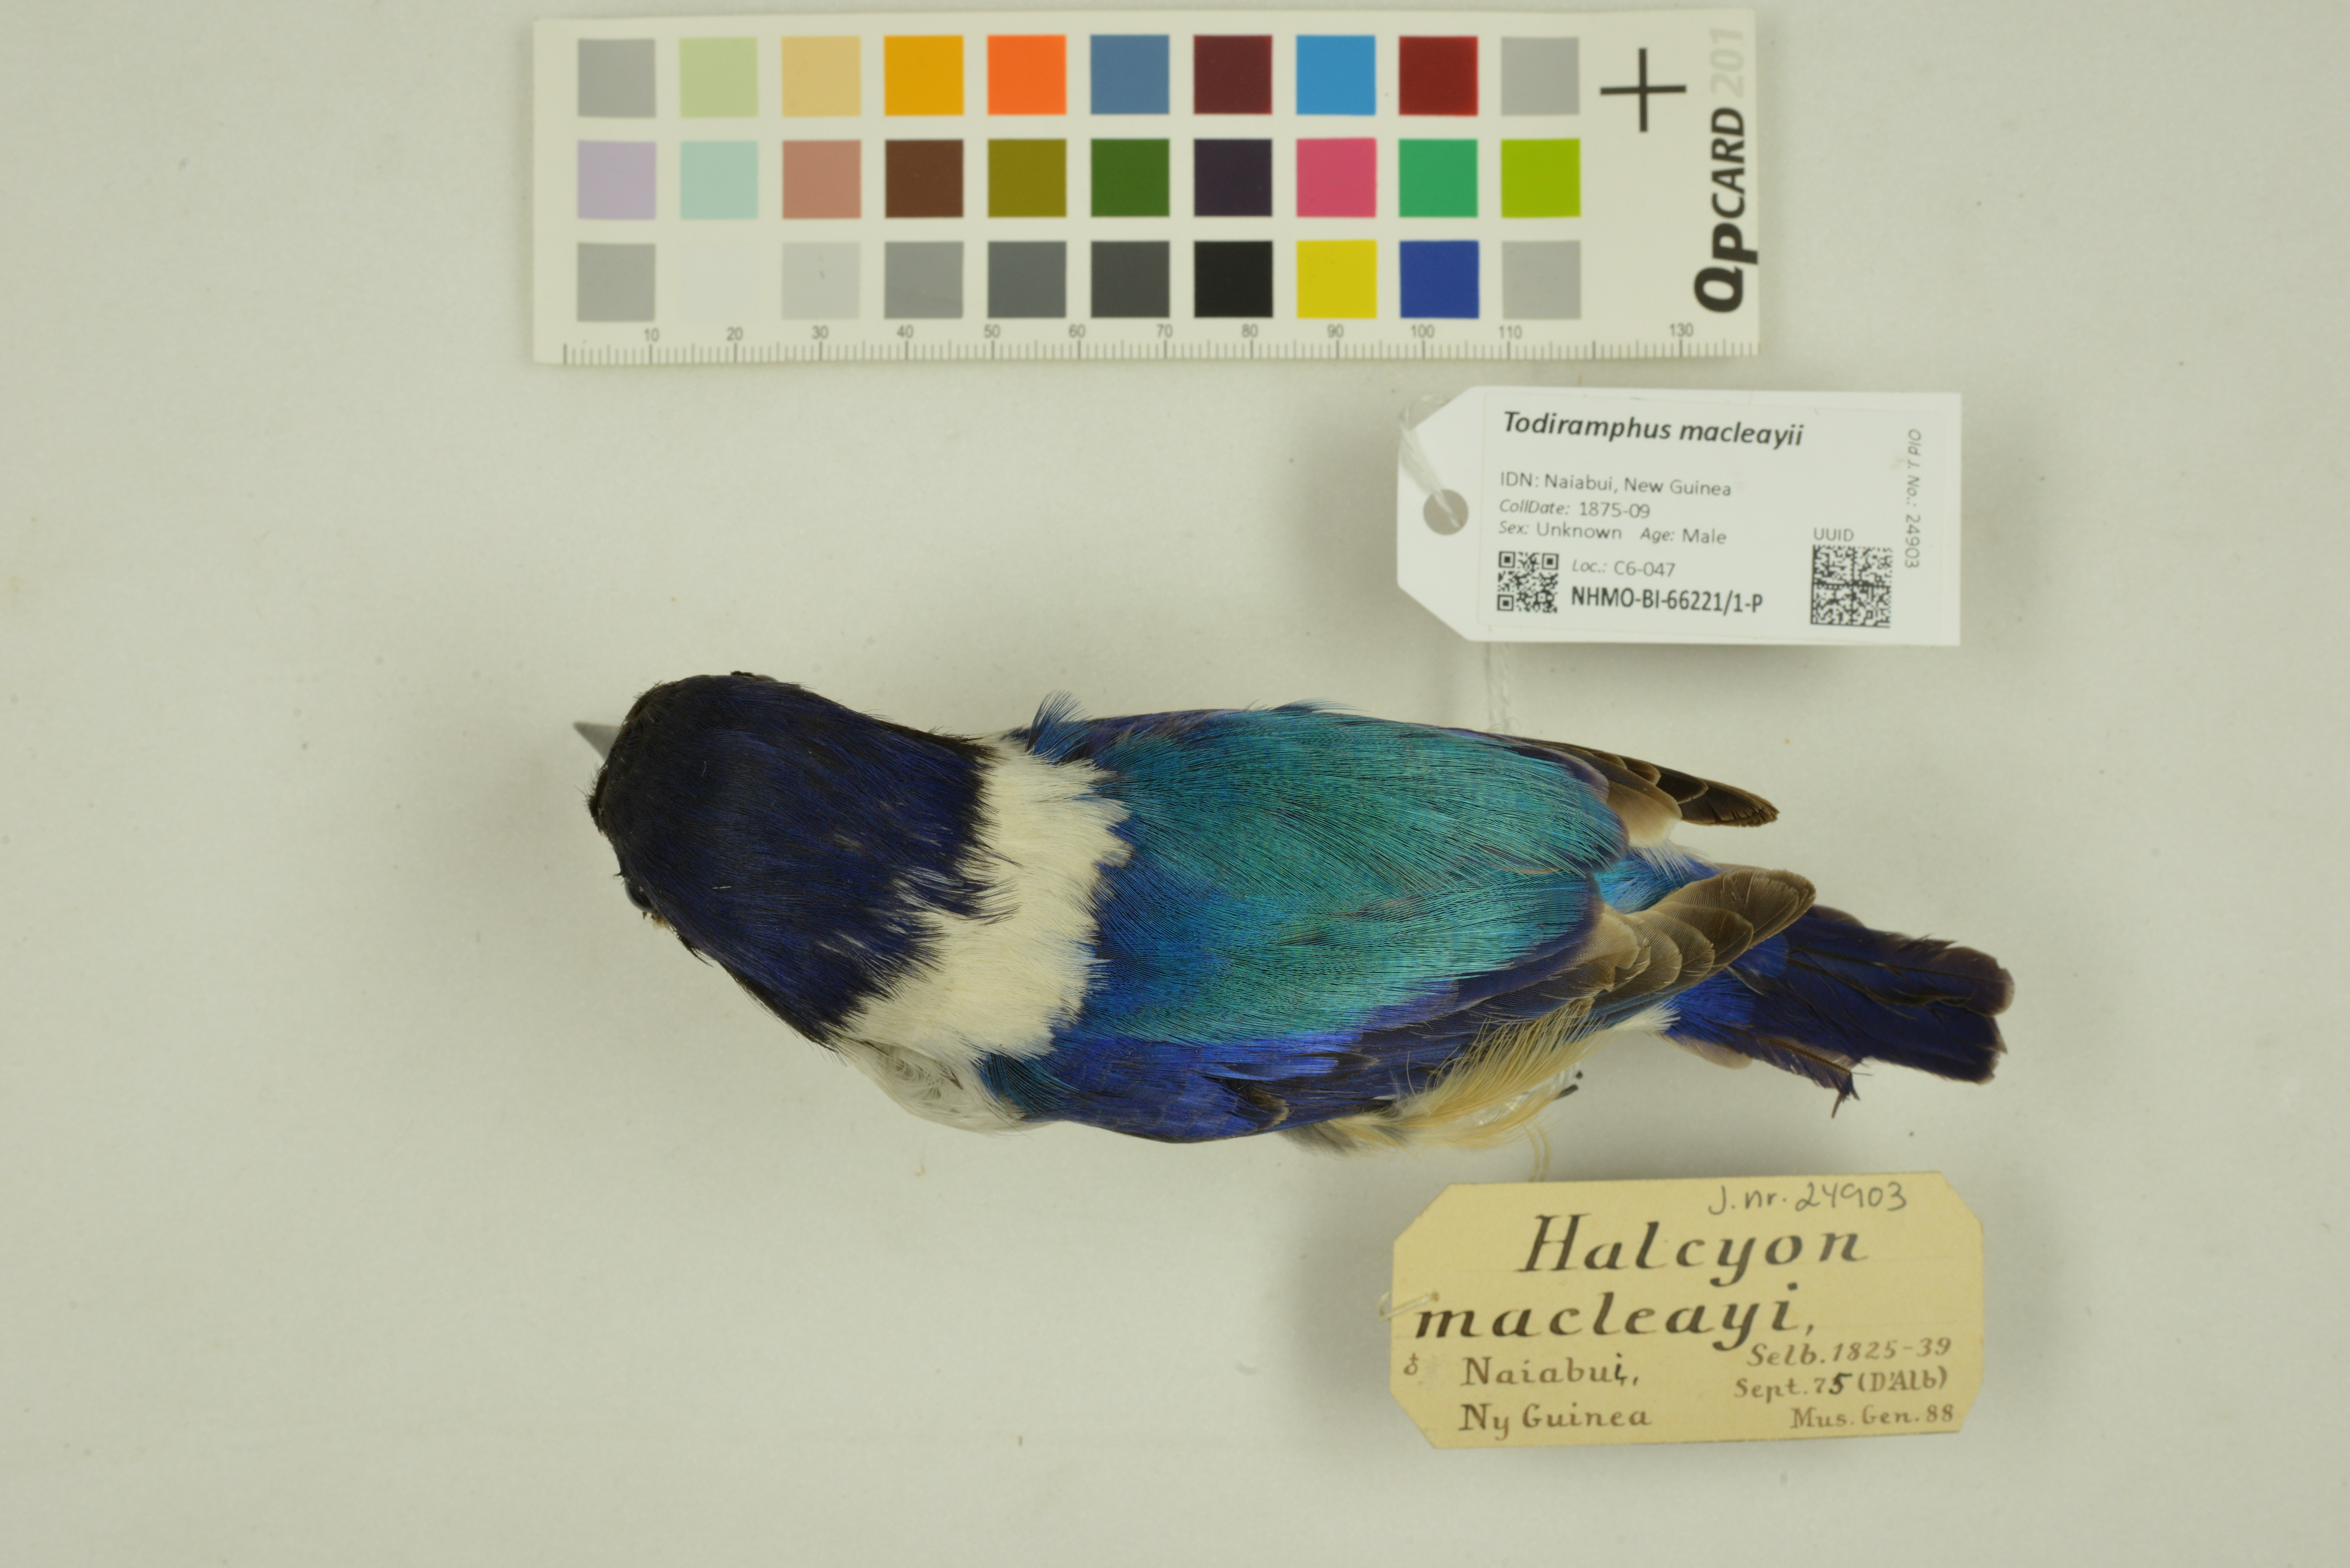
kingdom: Animalia
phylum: Chordata
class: Aves
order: Coraciiformes
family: Alcedinidae
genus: Todiramphus
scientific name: Todiramphus macleayii
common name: Forest kingfisher
